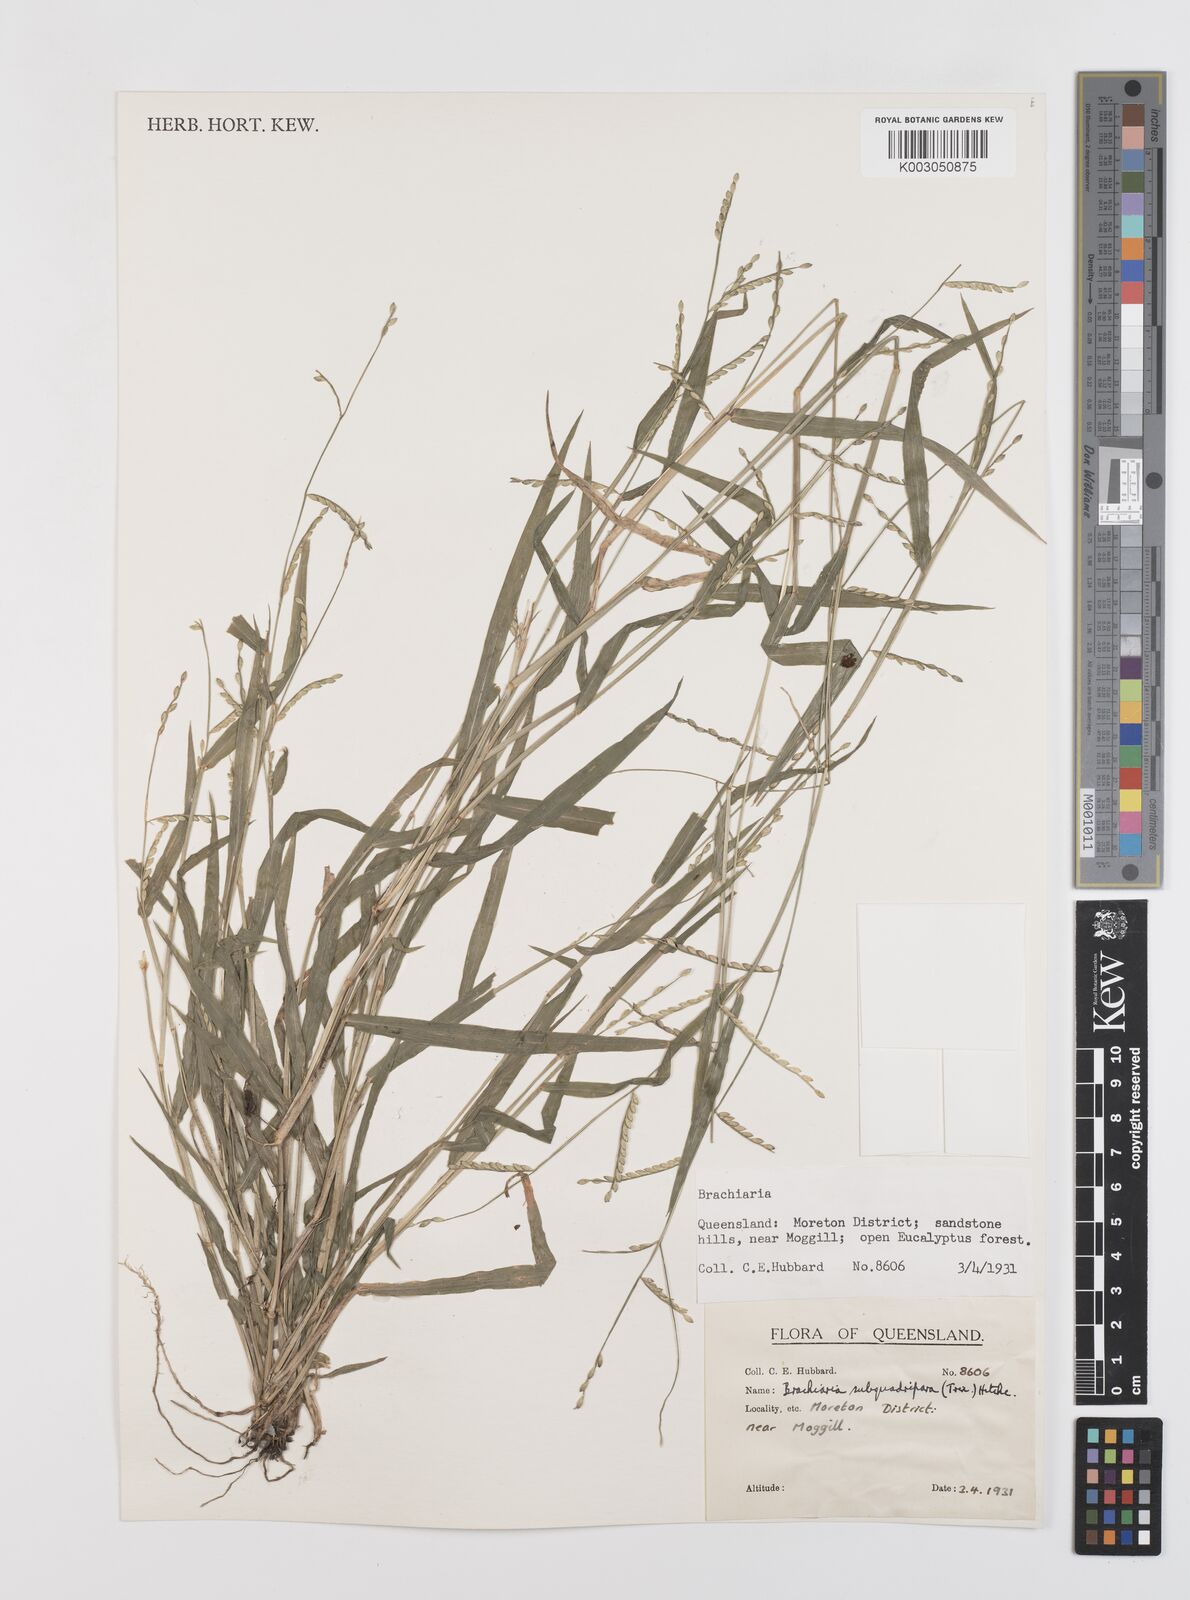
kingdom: Plantae
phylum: Tracheophyta
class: Liliopsida
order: Poales
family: Poaceae
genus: Urochloa
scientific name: Urochloa subquadripara
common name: Armgrass millet
